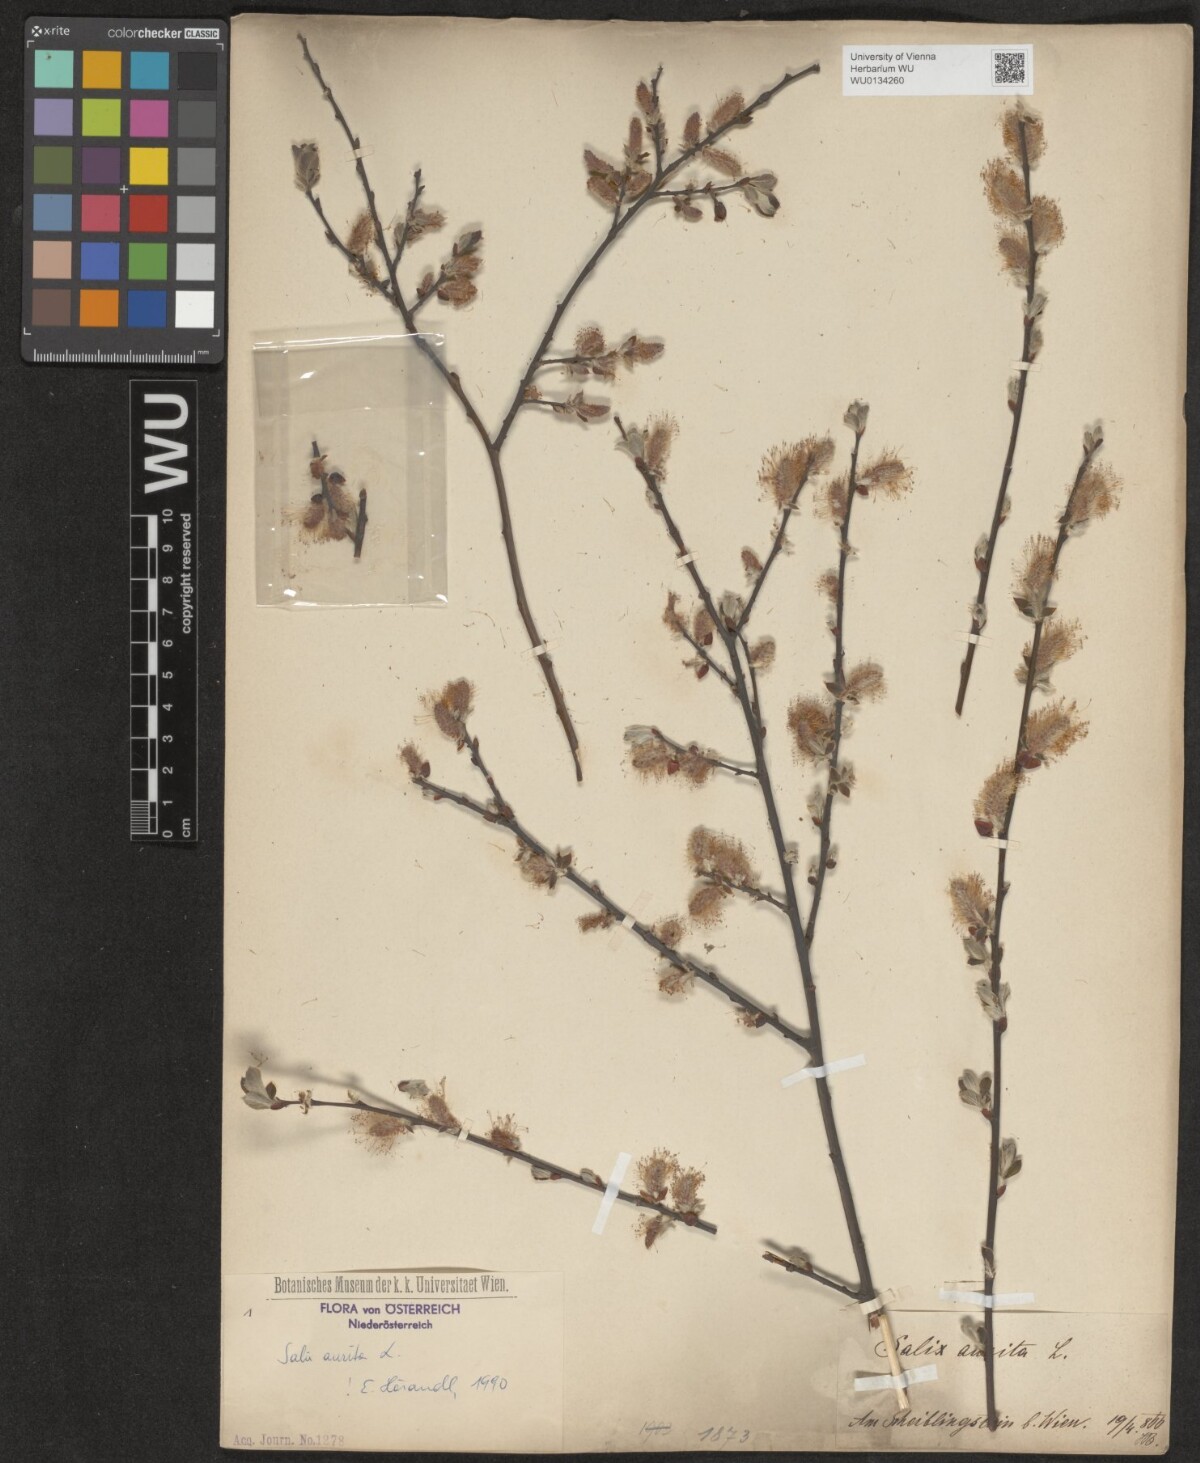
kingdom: Plantae
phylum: Tracheophyta
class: Magnoliopsida
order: Malpighiales
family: Salicaceae
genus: Salix
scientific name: Salix aurita
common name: Eared willow
